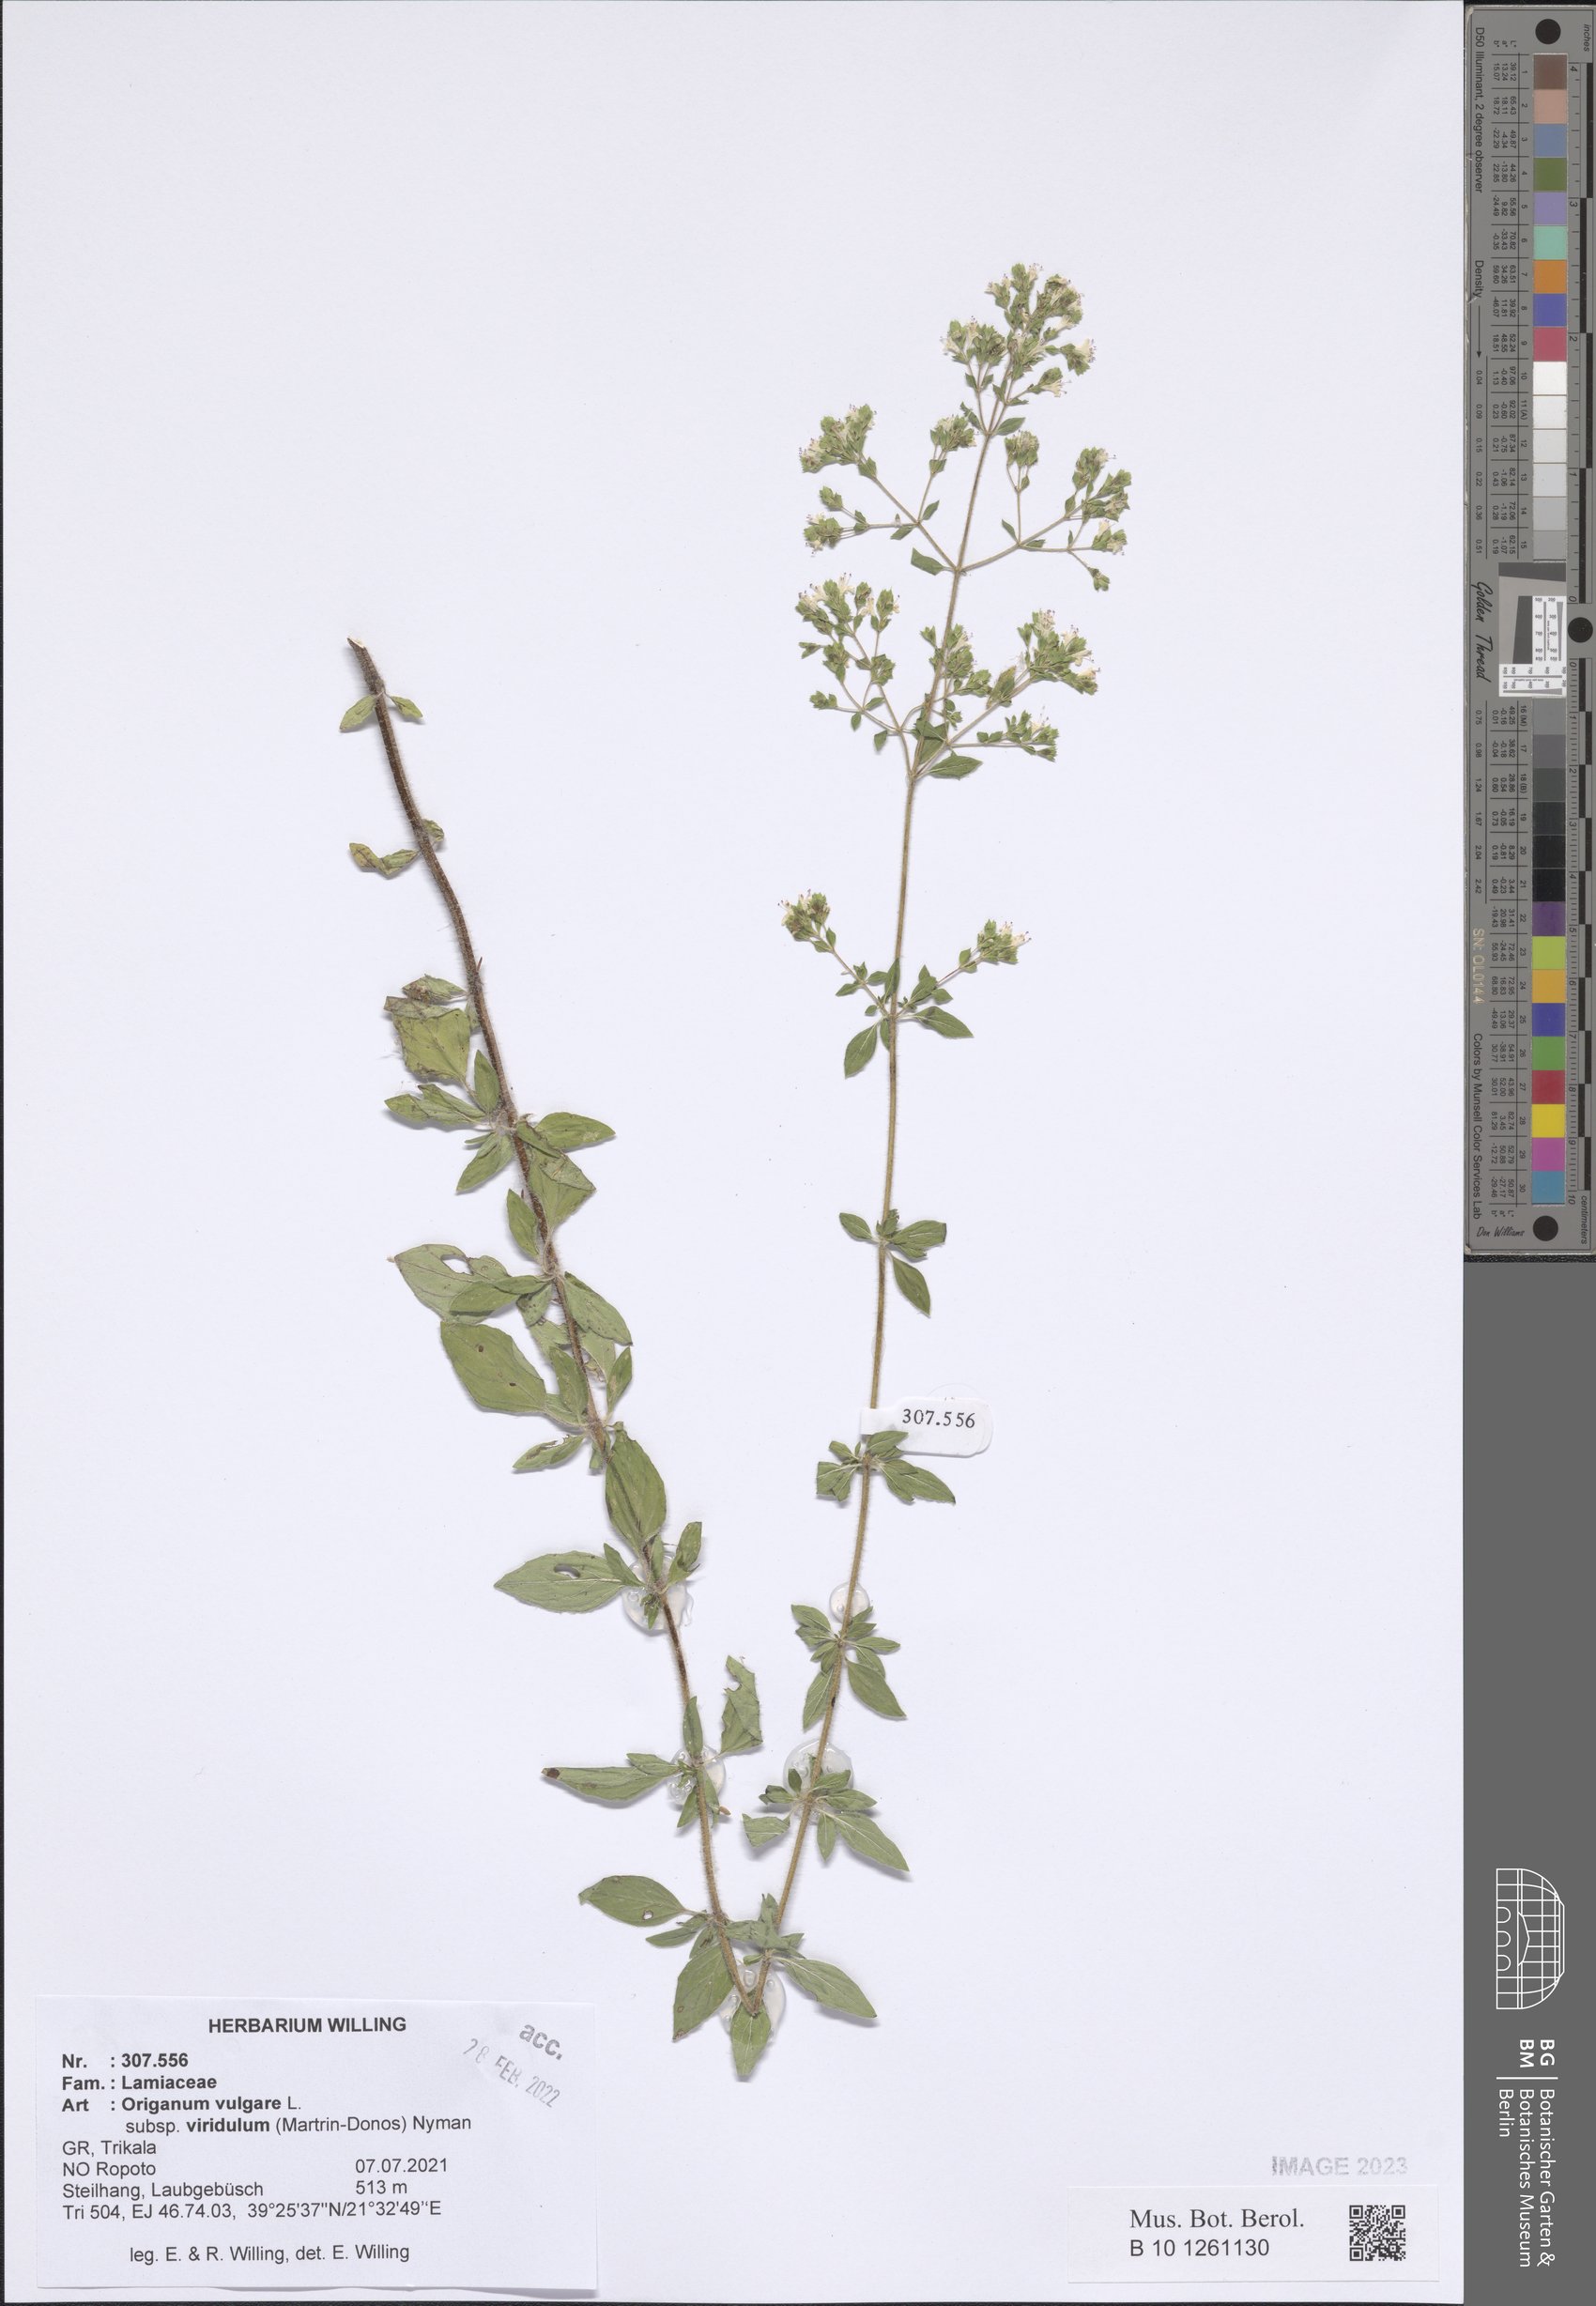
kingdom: Plantae
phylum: Tracheophyta
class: Magnoliopsida
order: Lamiales
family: Lamiaceae
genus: Origanum
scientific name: Origanum vulgare
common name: Wild marjoram
